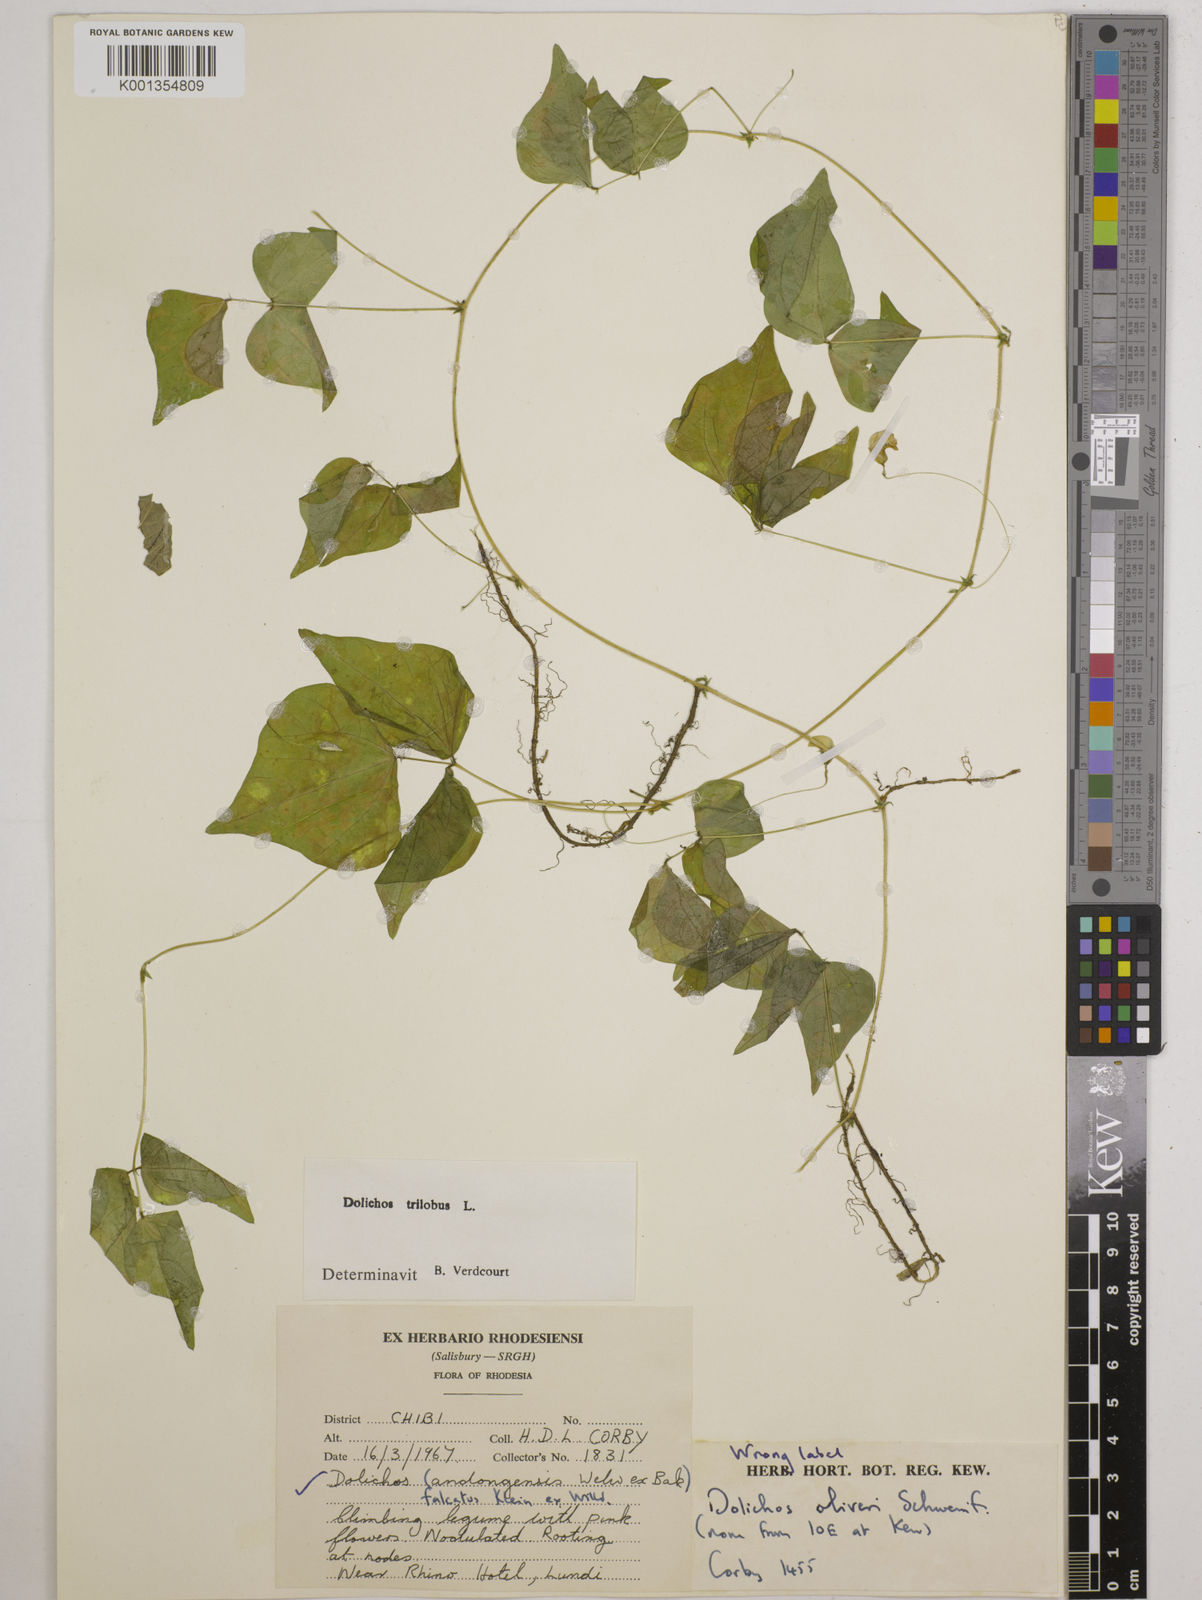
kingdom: Plantae
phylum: Tracheophyta
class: Magnoliopsida
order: Fabales
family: Fabaceae
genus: Dolichos
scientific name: Dolichos
